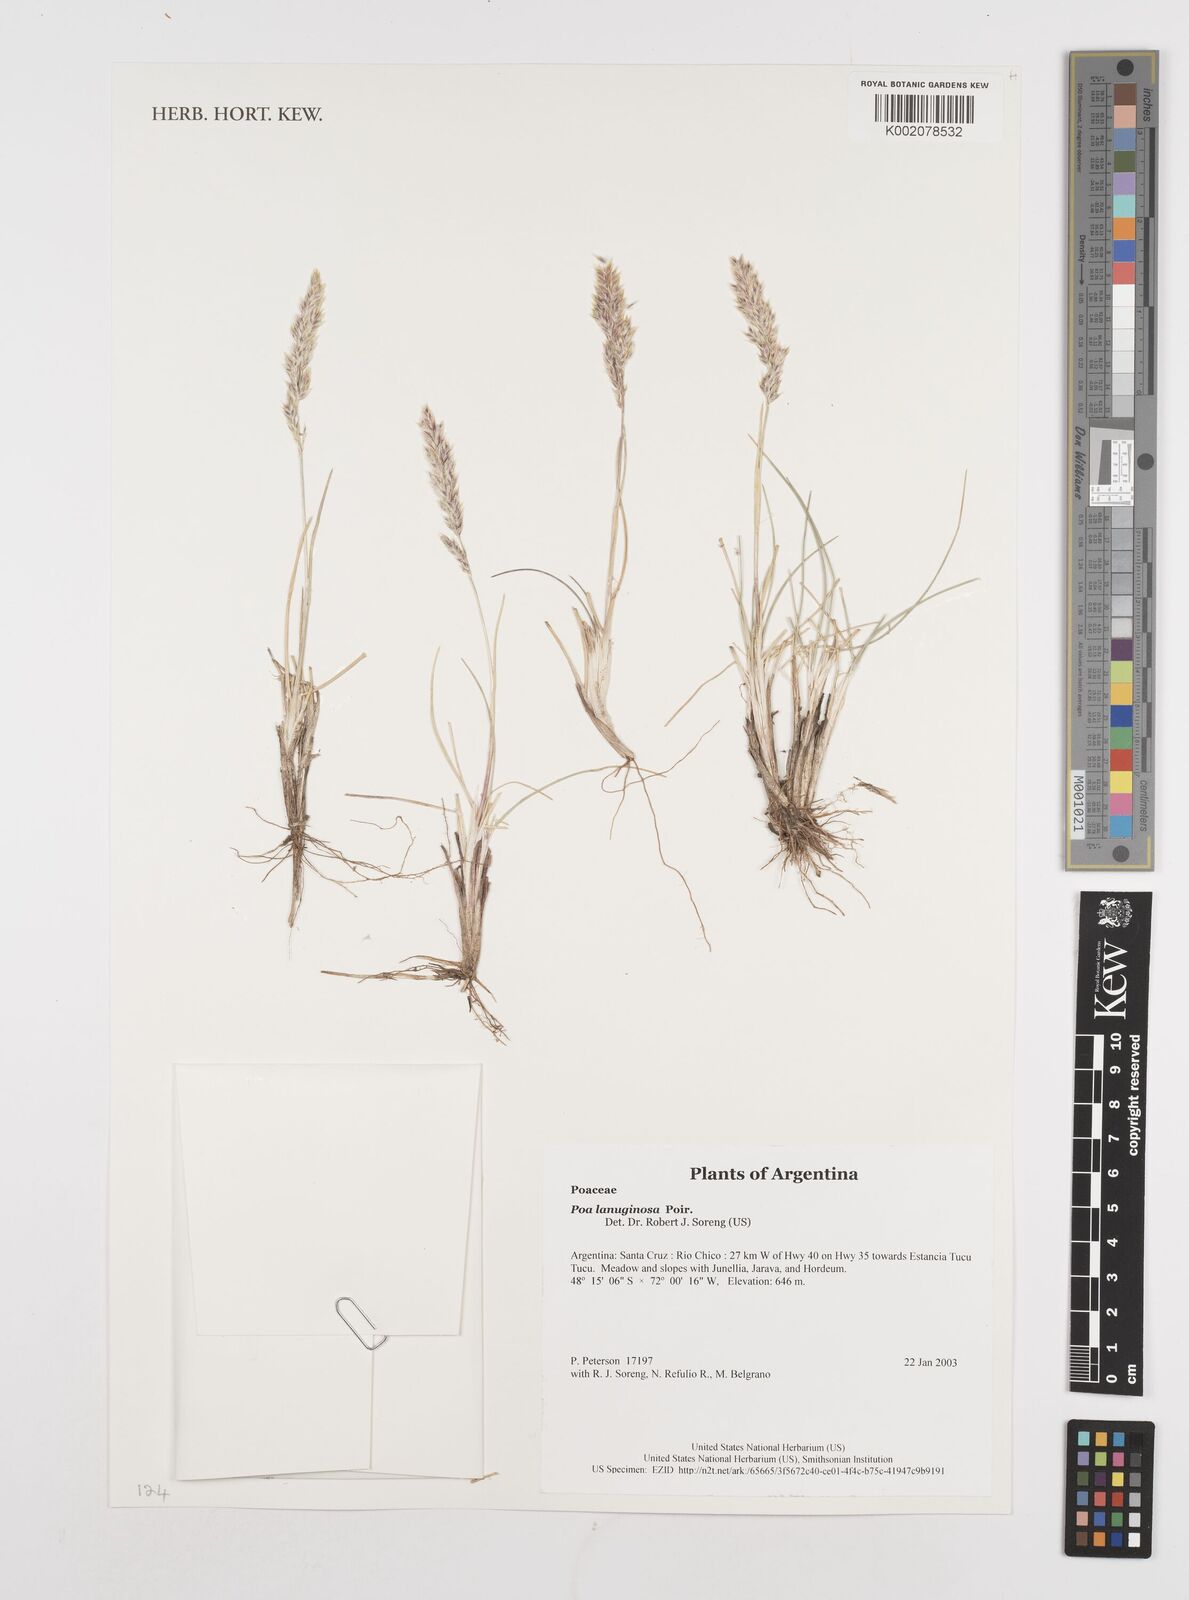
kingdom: Plantae
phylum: Tracheophyta
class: Liliopsida
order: Poales
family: Poaceae
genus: Poa
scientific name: Poa lanuginosa
